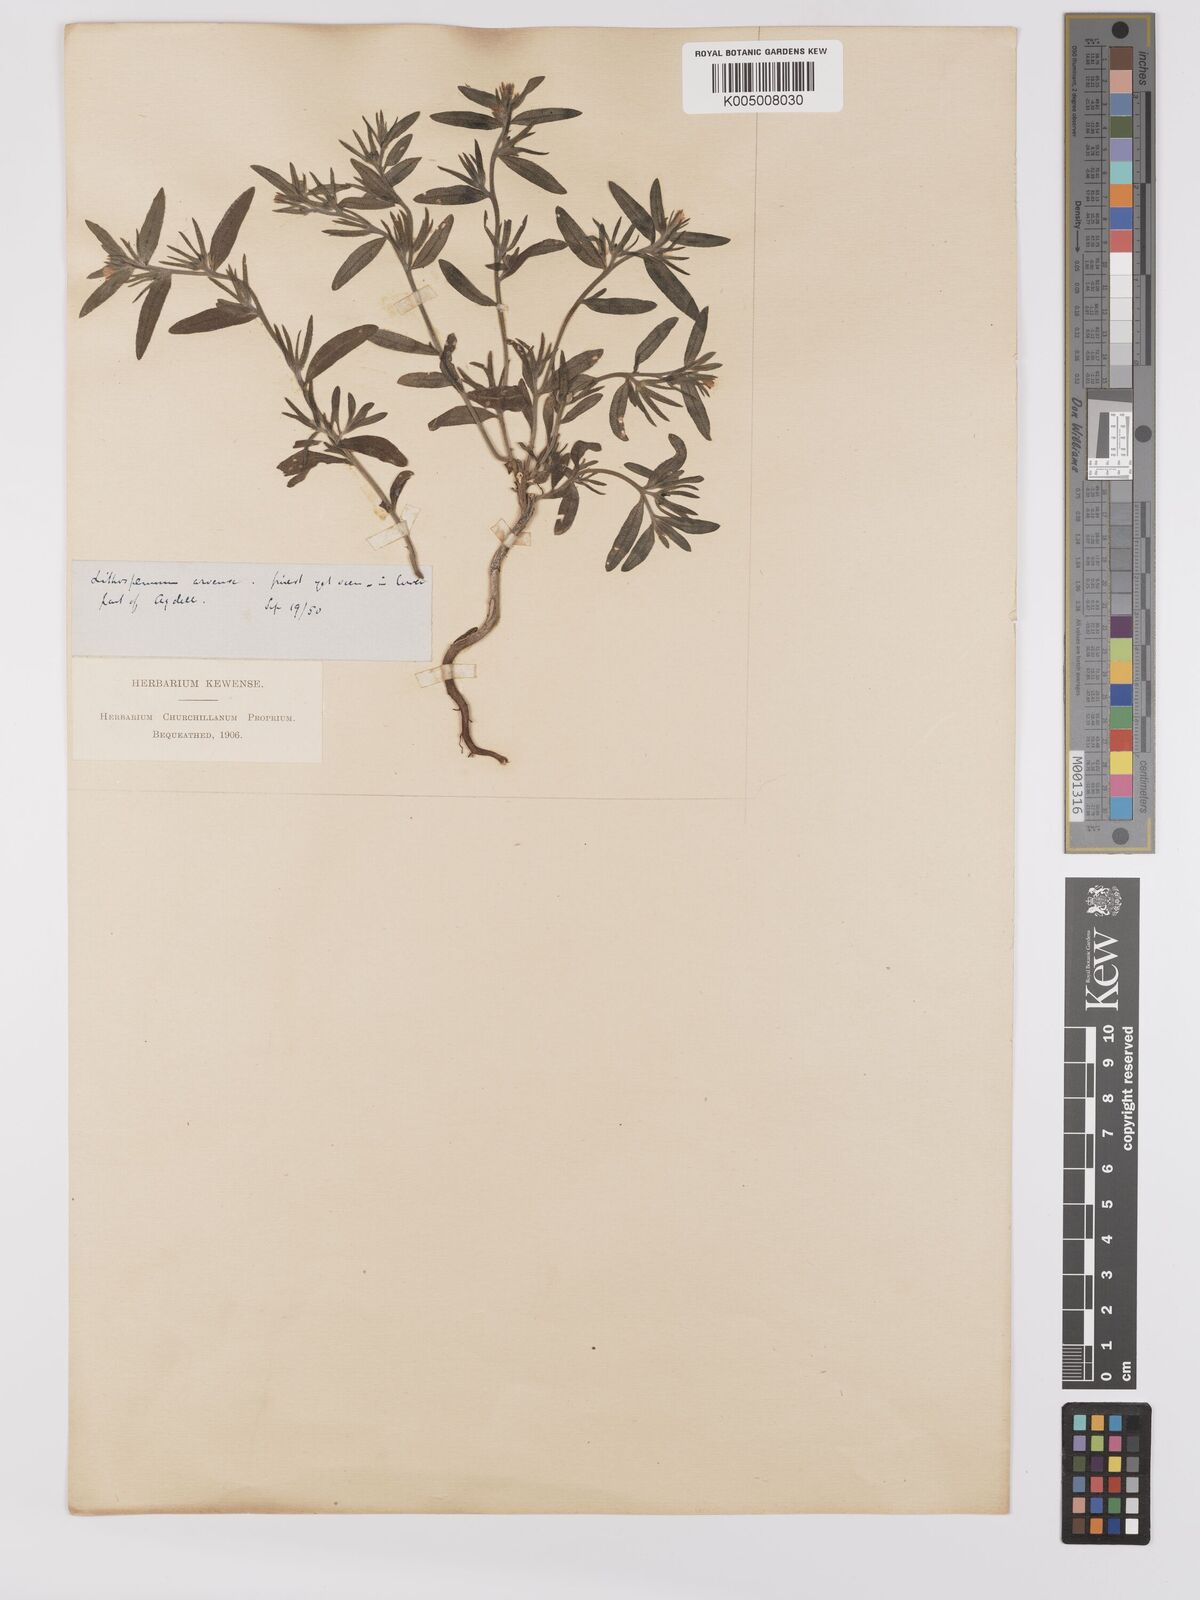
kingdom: Plantae
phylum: Tracheophyta
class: Magnoliopsida
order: Boraginales
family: Boraginaceae
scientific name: Boraginaceae
